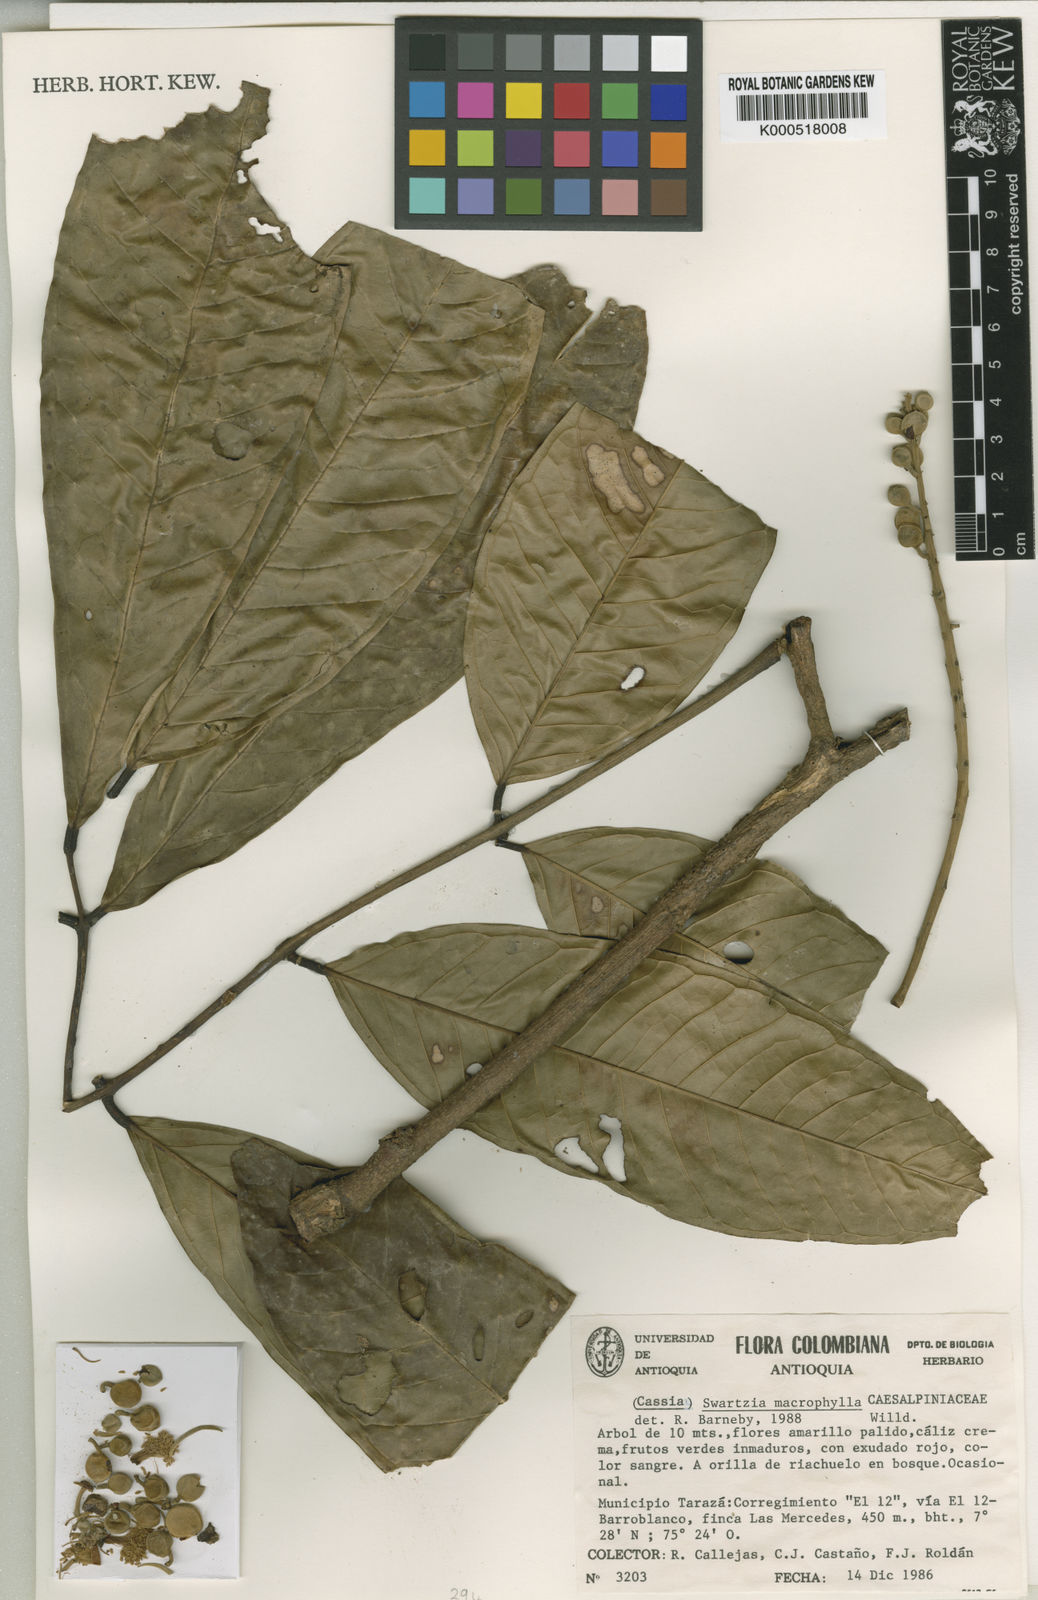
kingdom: Plantae
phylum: Tracheophyta
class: Magnoliopsida
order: Fabales
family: Fabaceae
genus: Swartzia
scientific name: Swartzia macrophylla
